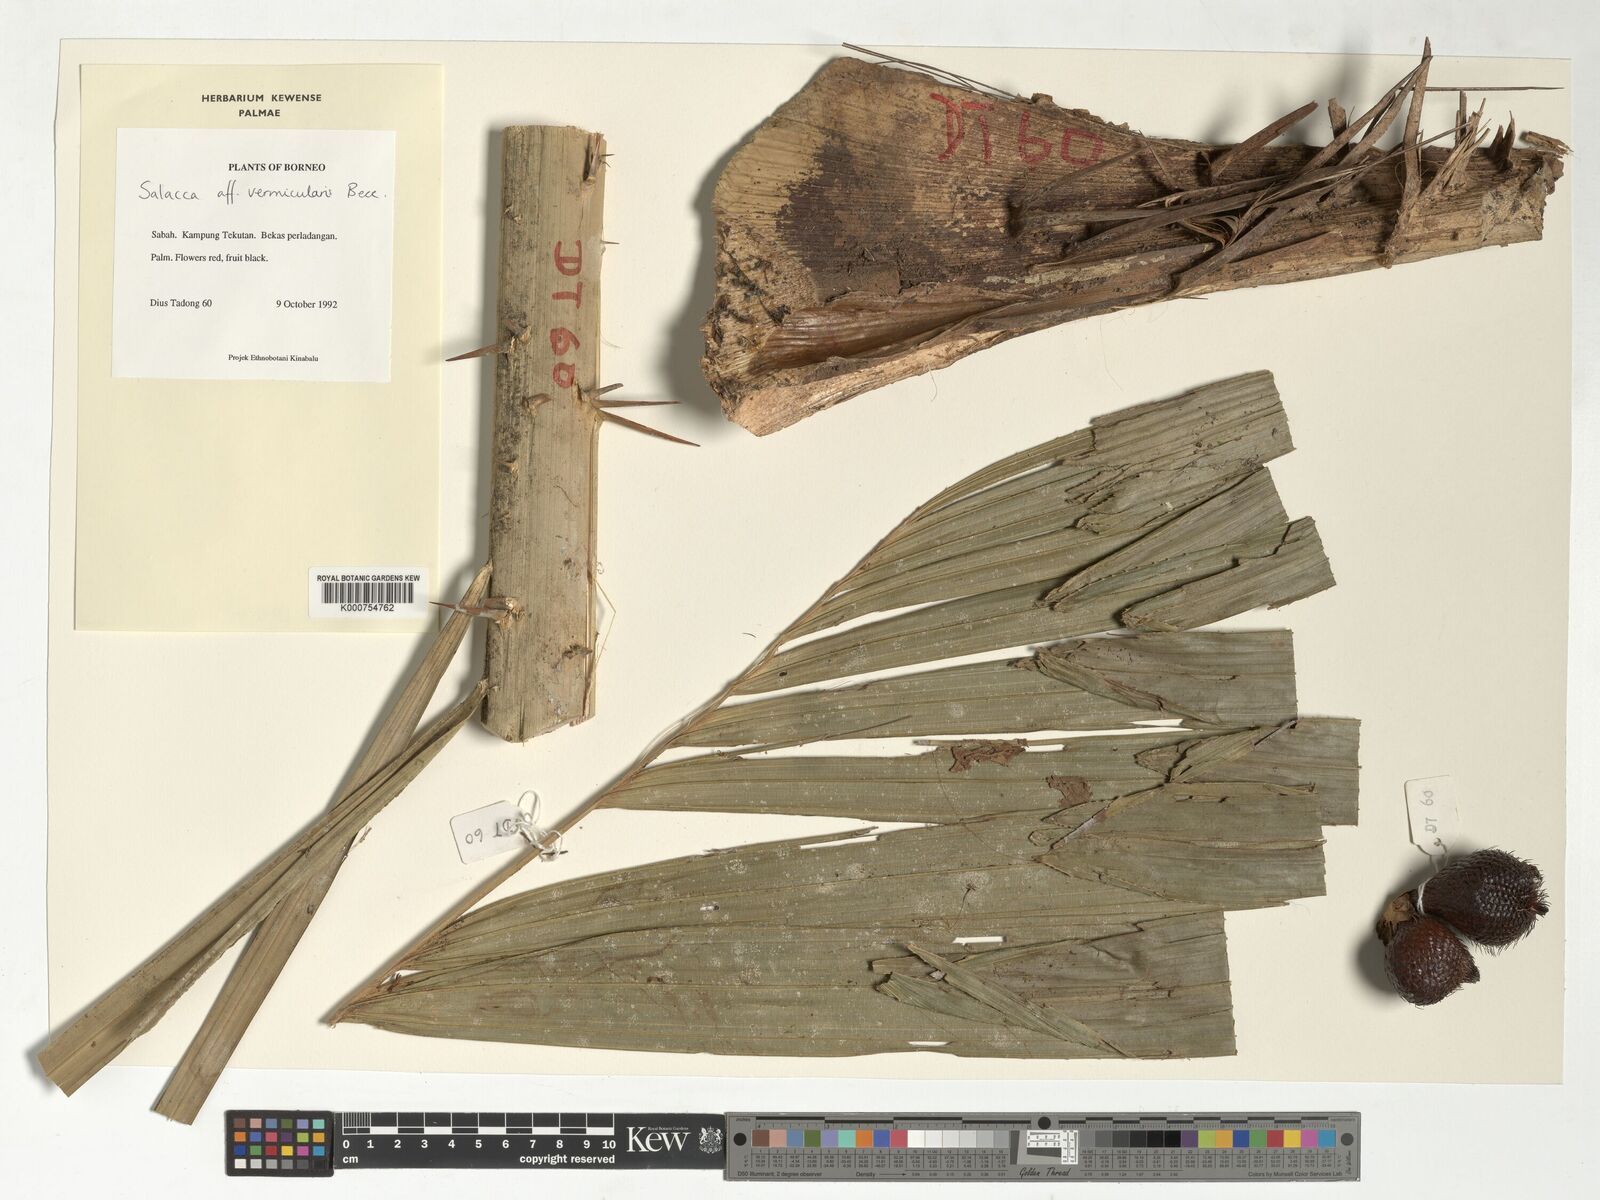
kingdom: Plantae
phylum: Tracheophyta
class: Liliopsida
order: Arecales
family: Arecaceae
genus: Salacca
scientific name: Salacca vermicularis
